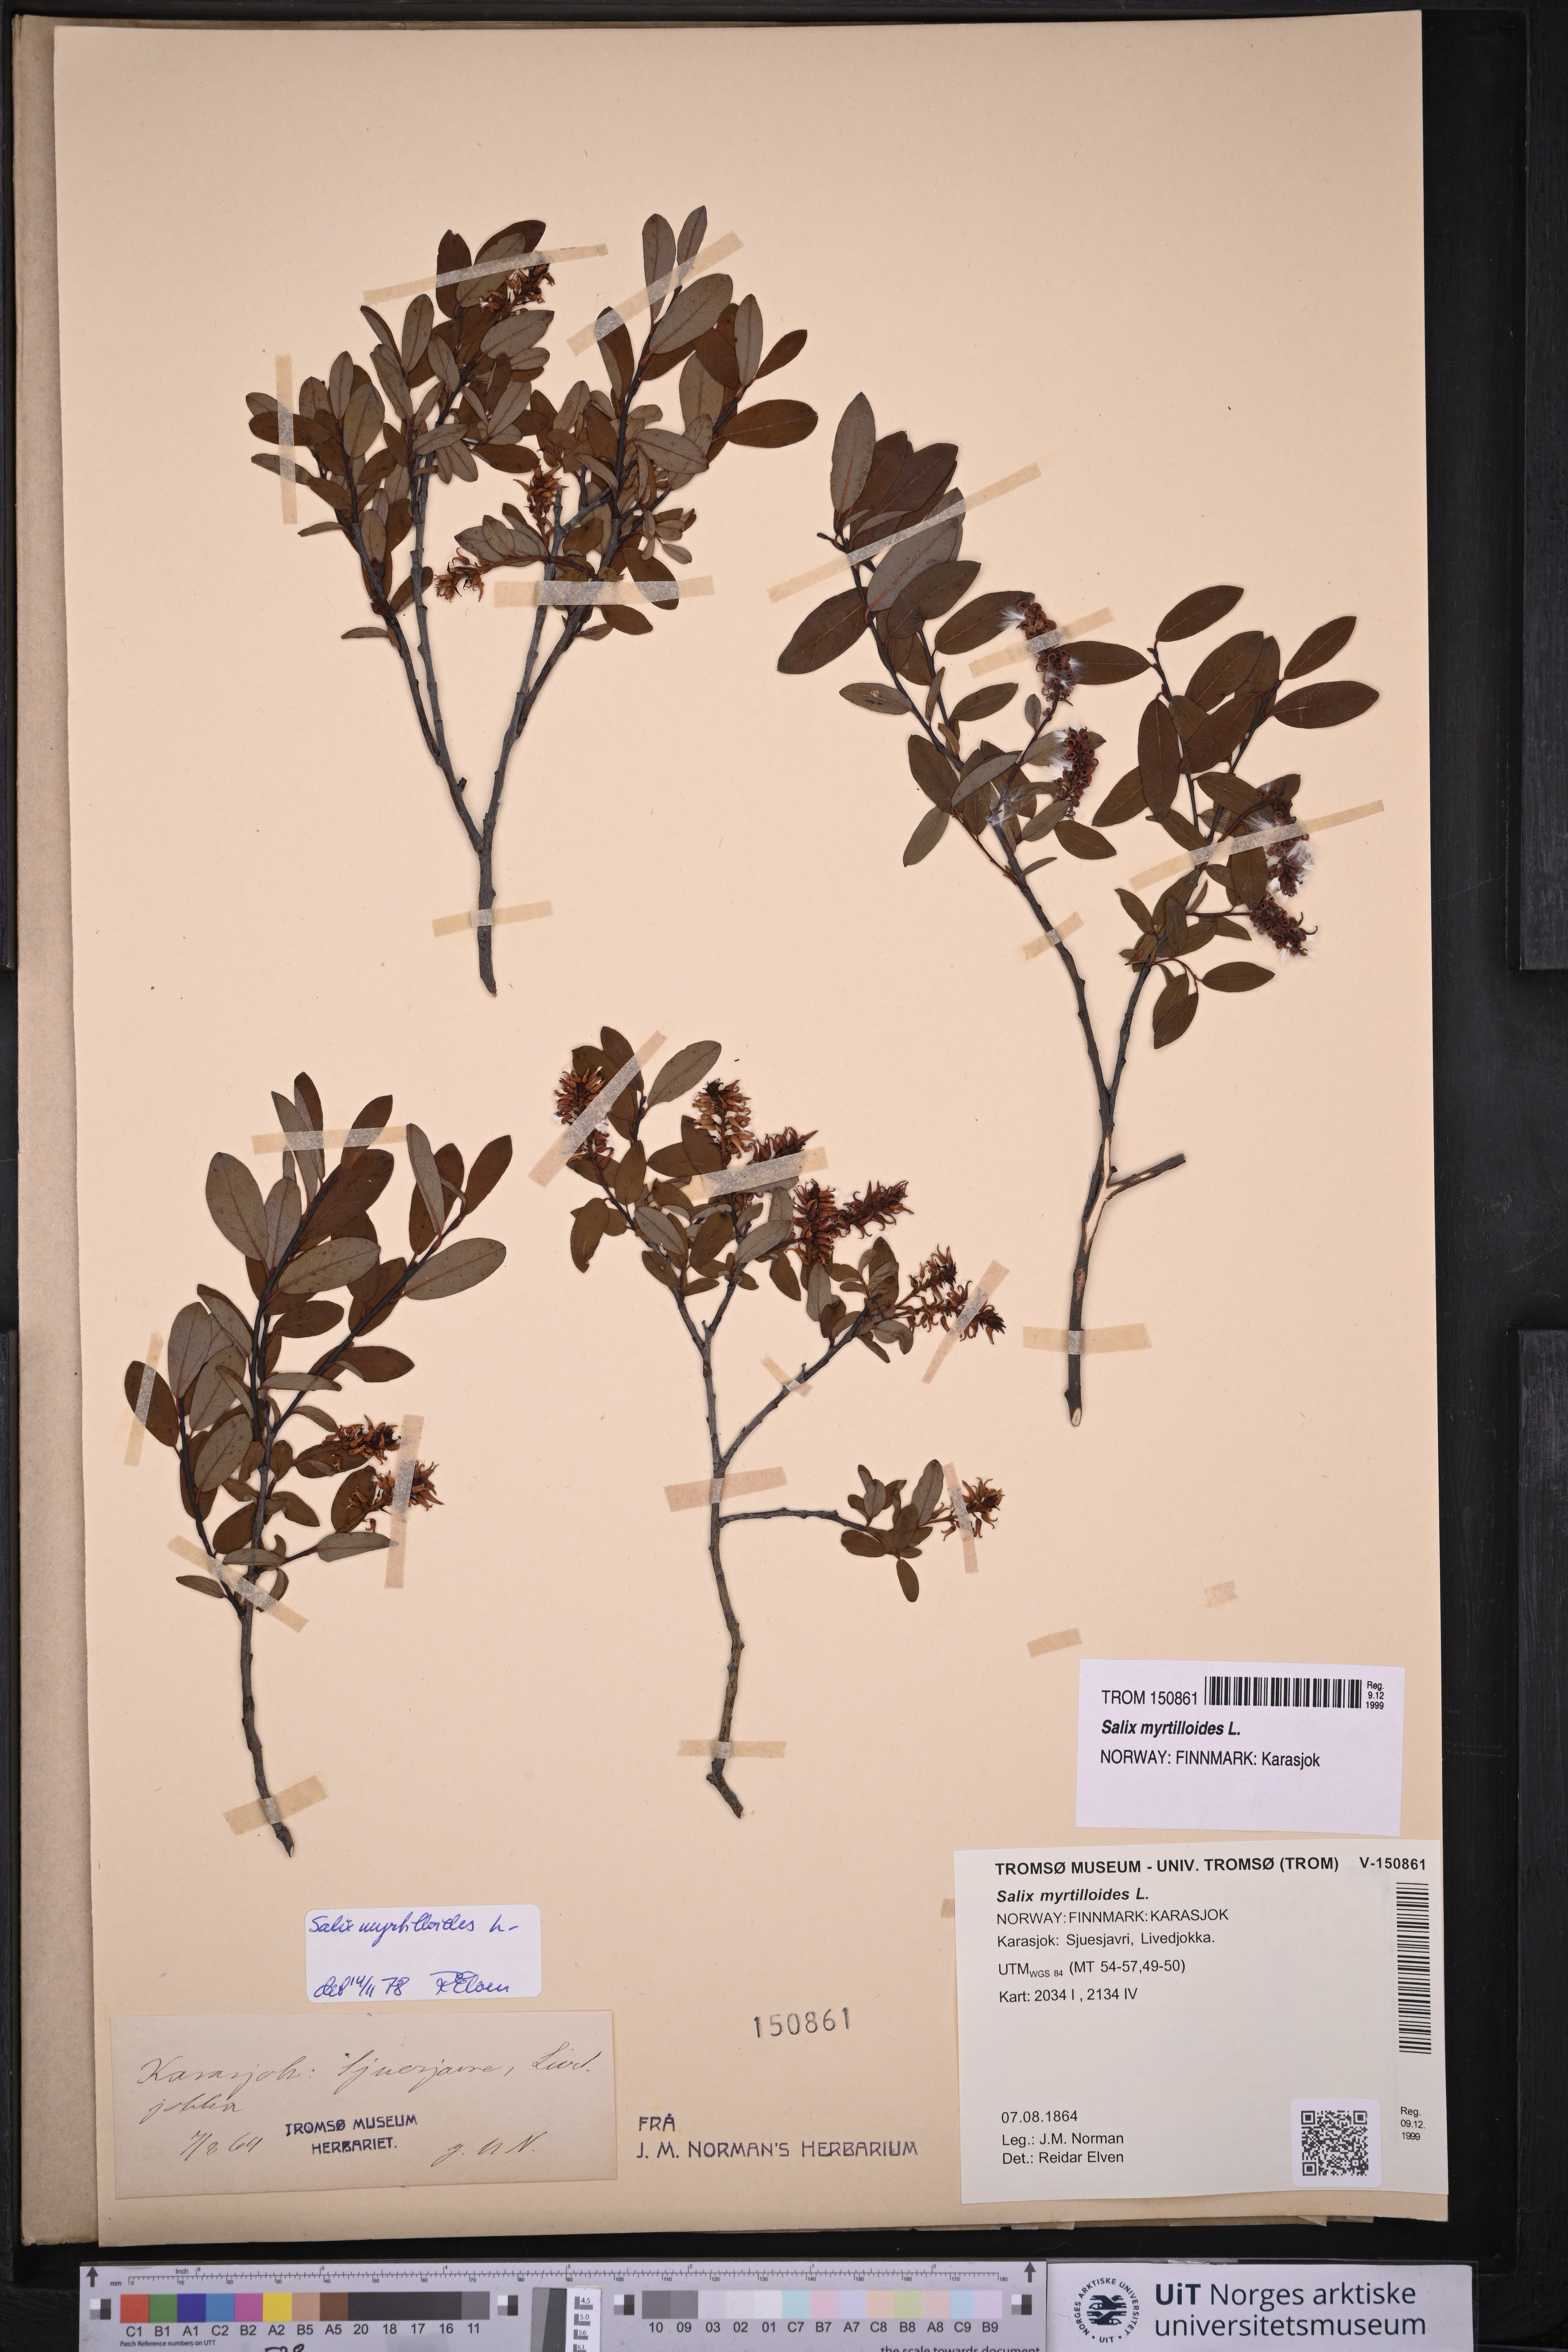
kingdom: Plantae
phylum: Tracheophyta
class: Magnoliopsida
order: Malpighiales
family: Salicaceae
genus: Salix
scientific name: Salix myrtilloides
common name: Myrtle-leaved willow
